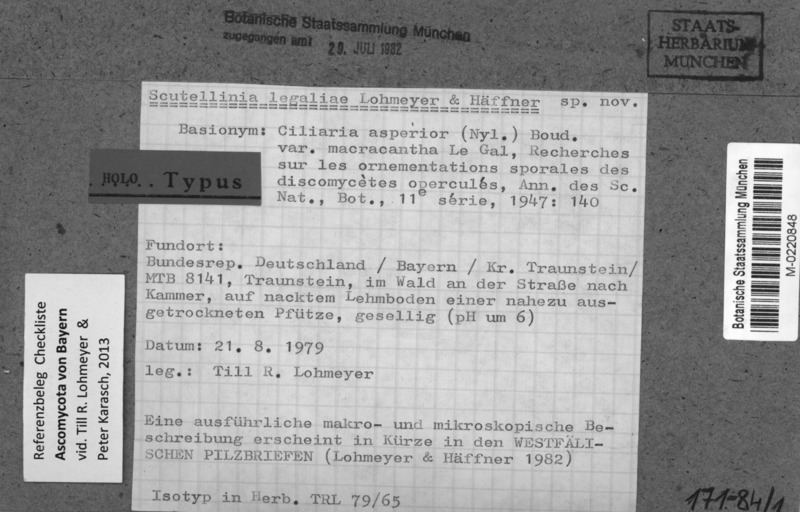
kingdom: Fungi
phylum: Ascomycota
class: Pezizomycetes
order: Pezizales
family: Pyronemataceae
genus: Scutellinia
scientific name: Scutellinia legaliae
